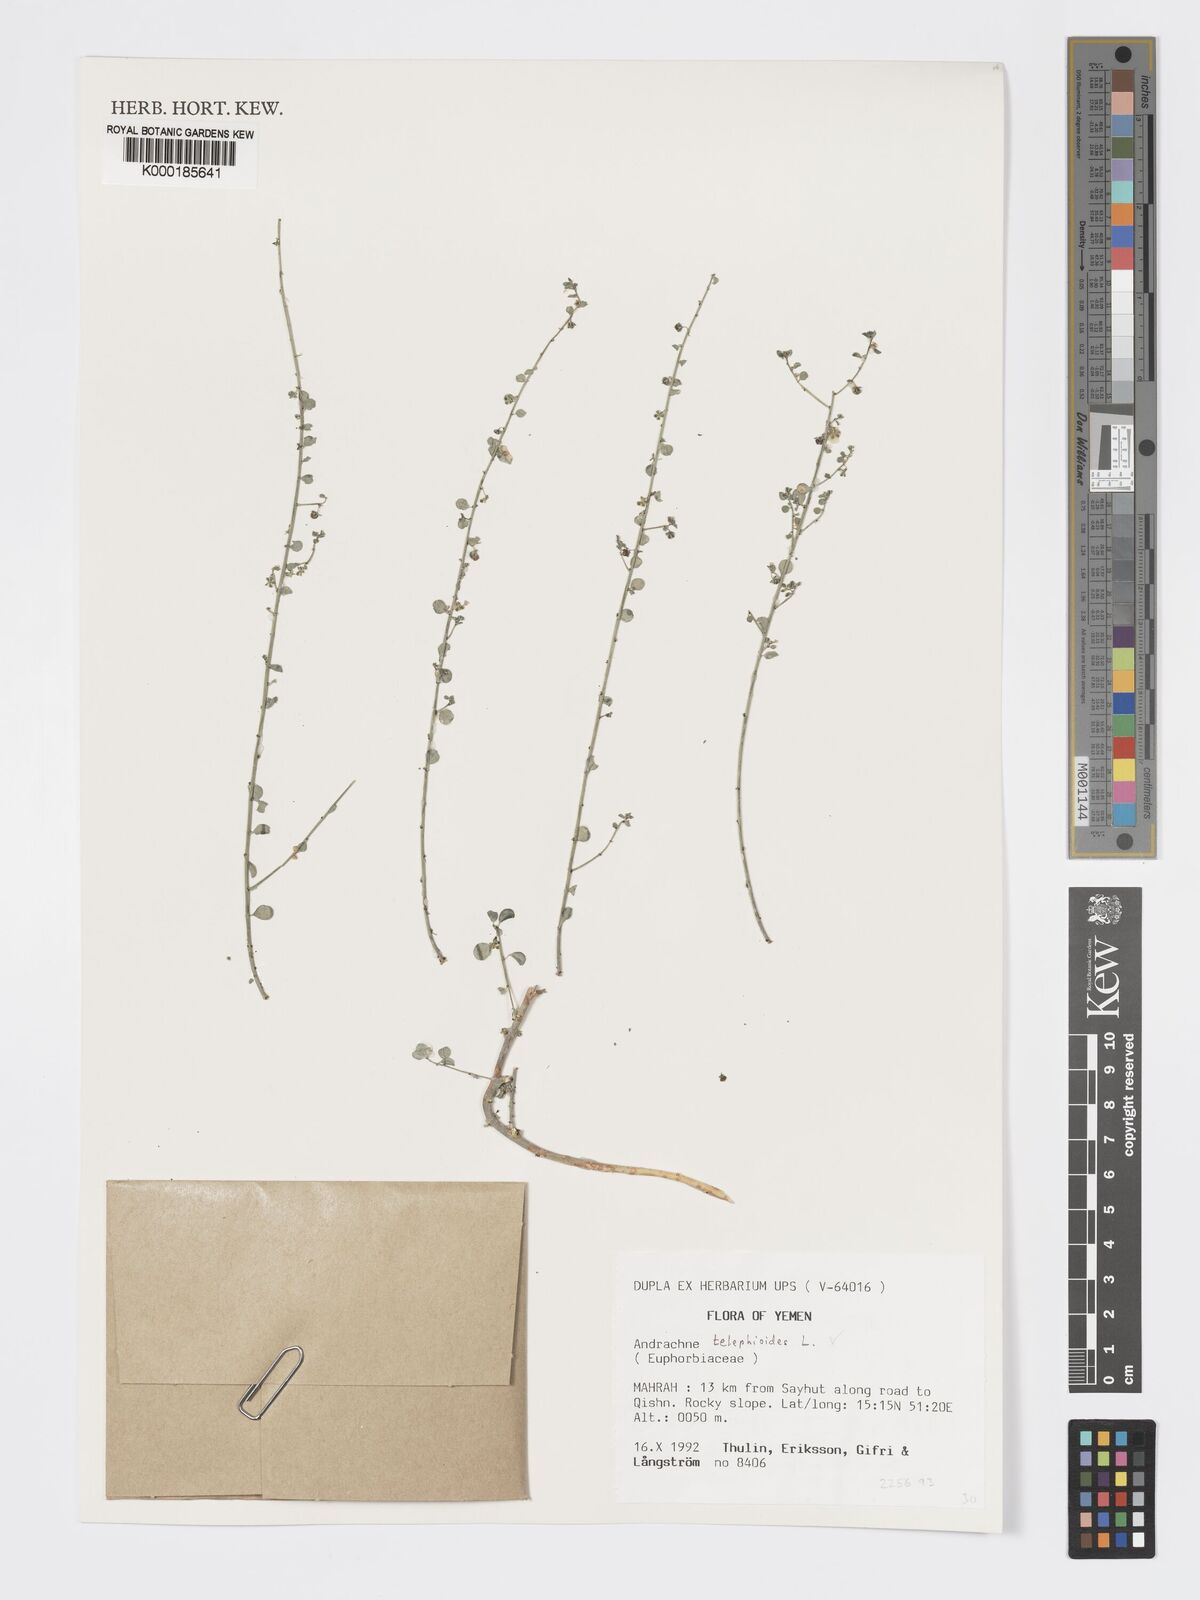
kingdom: Plantae
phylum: Tracheophyta
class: Magnoliopsida
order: Malpighiales
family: Phyllanthaceae
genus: Andrachne
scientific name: Andrachne telephioides
